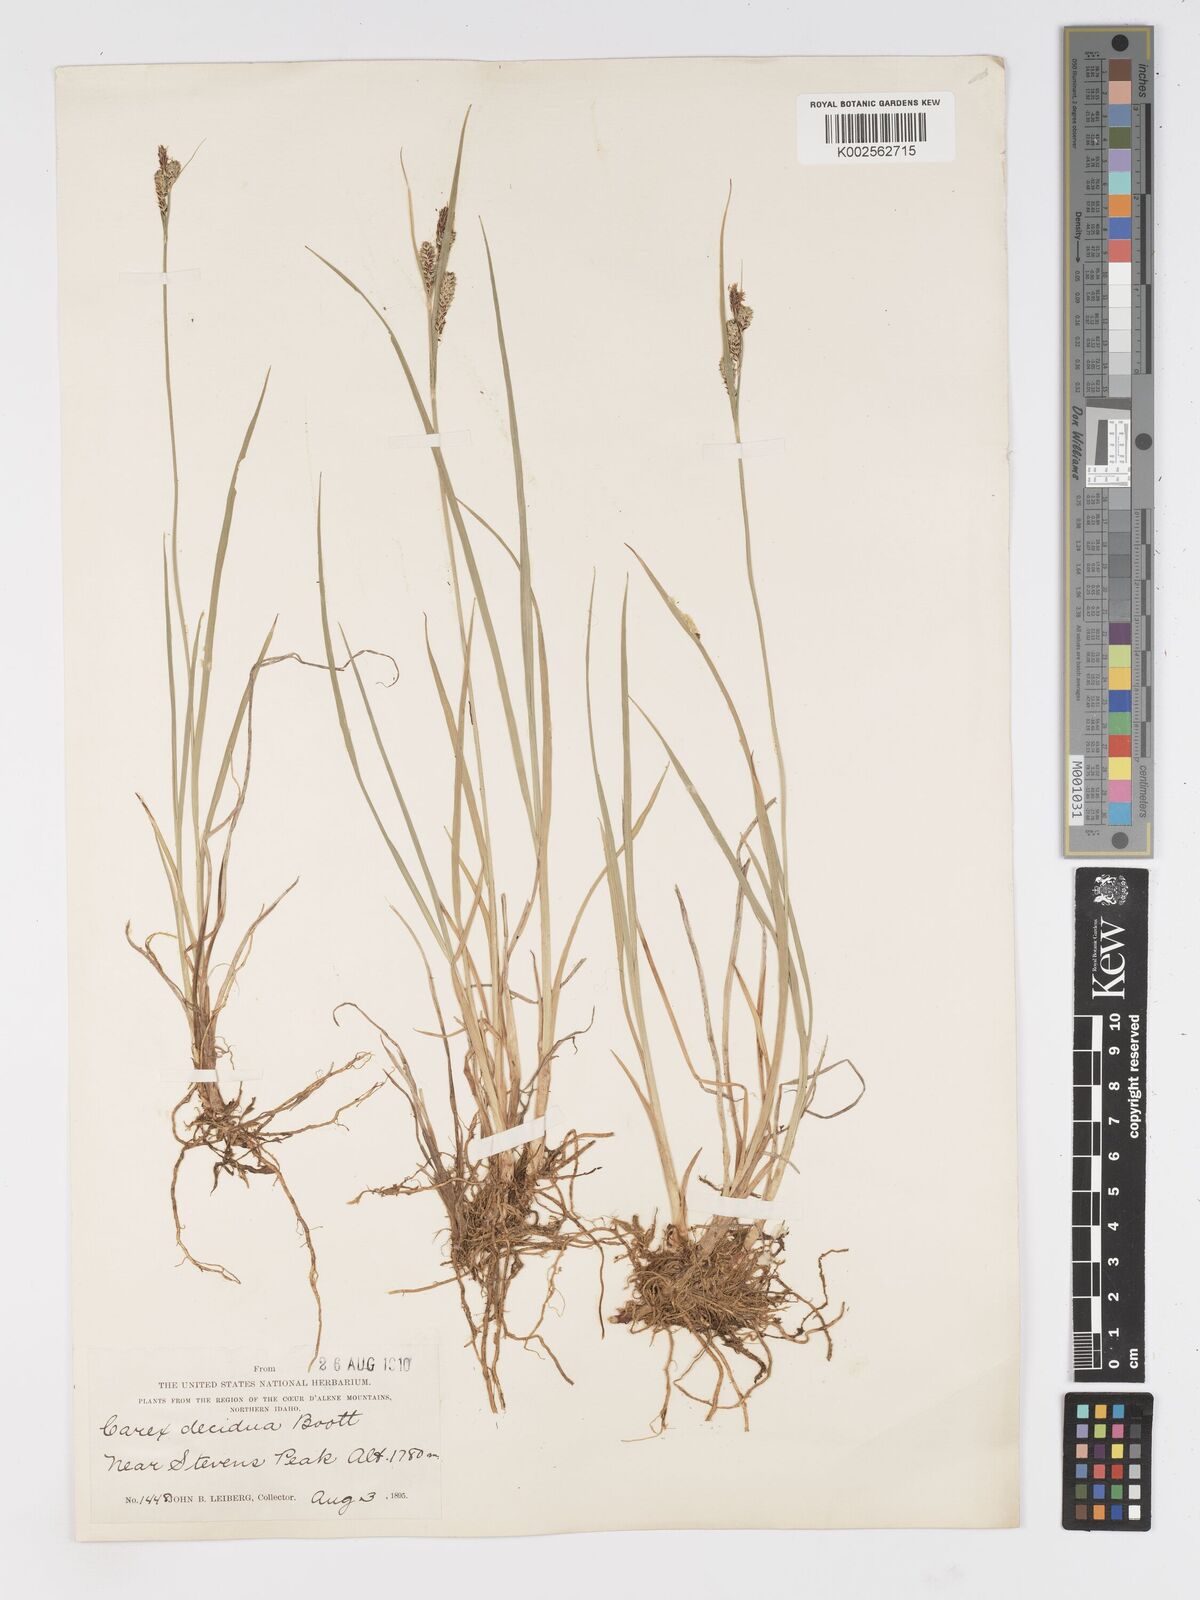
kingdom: Plantae
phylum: Tracheophyta
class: Liliopsida
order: Poales
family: Cyperaceae
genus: Carex
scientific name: Carex nudata
